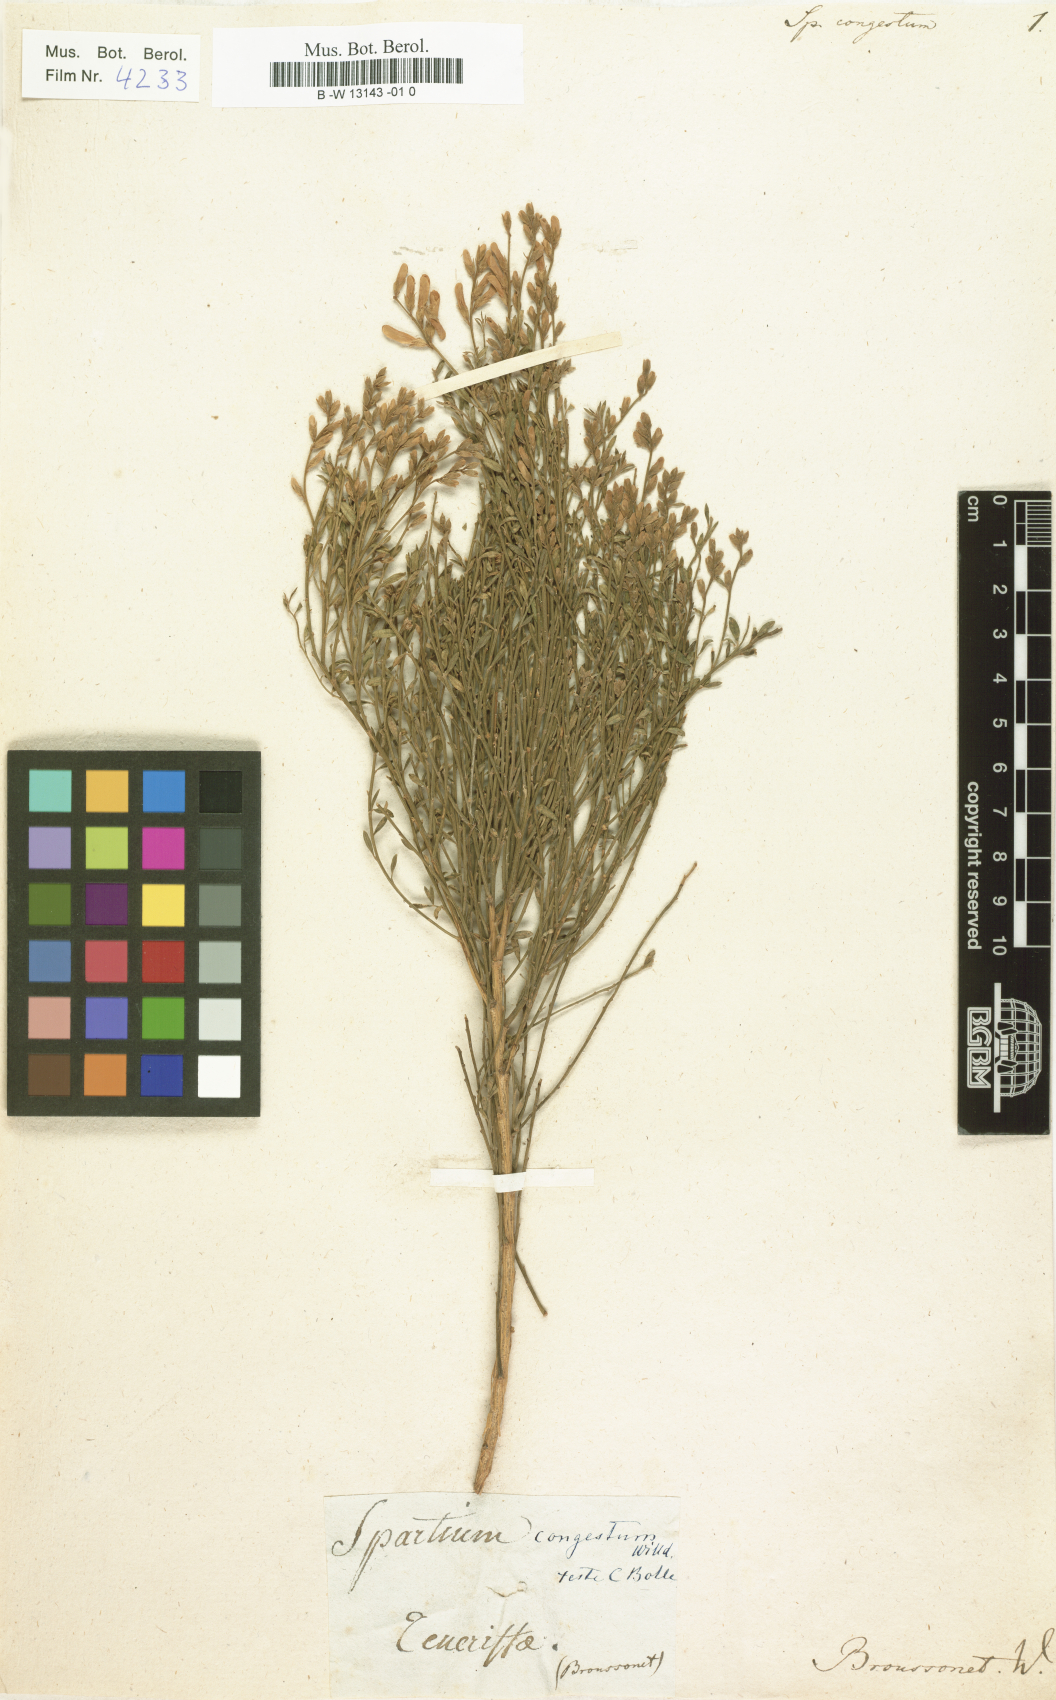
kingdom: Plantae
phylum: Tracheophyta
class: Magnoliopsida
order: Fabales
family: Fabaceae
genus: Genista
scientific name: Genista tenera
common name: Madeira broom
